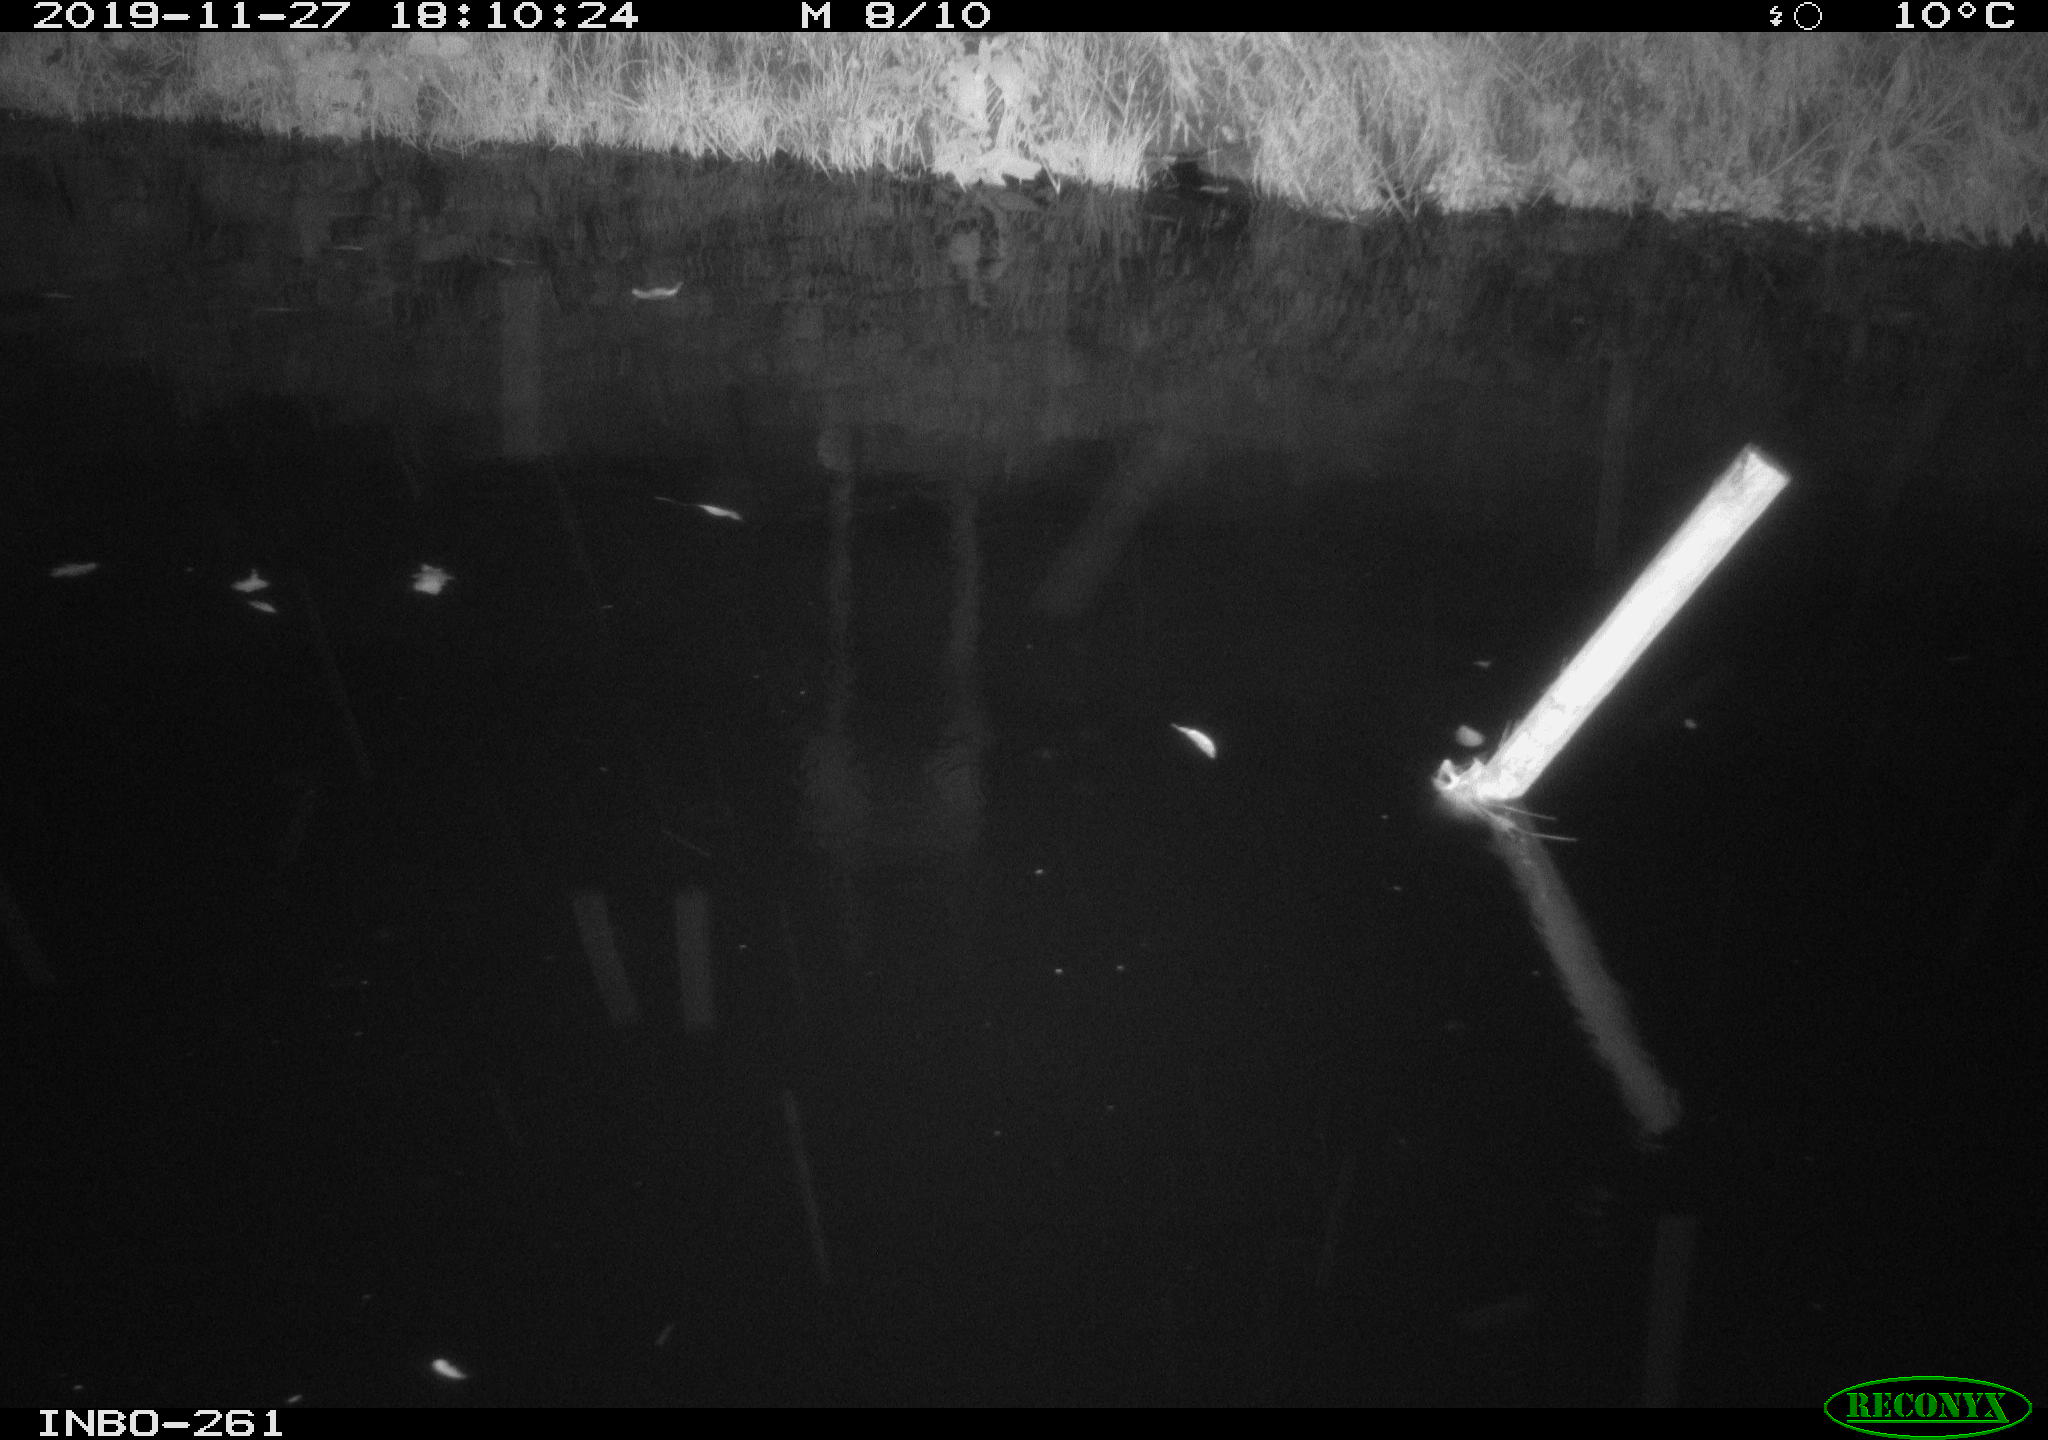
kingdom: Animalia
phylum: Chordata
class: Aves
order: Anseriformes
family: Anatidae
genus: Anas
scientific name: Anas platyrhynchos
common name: Mallard
